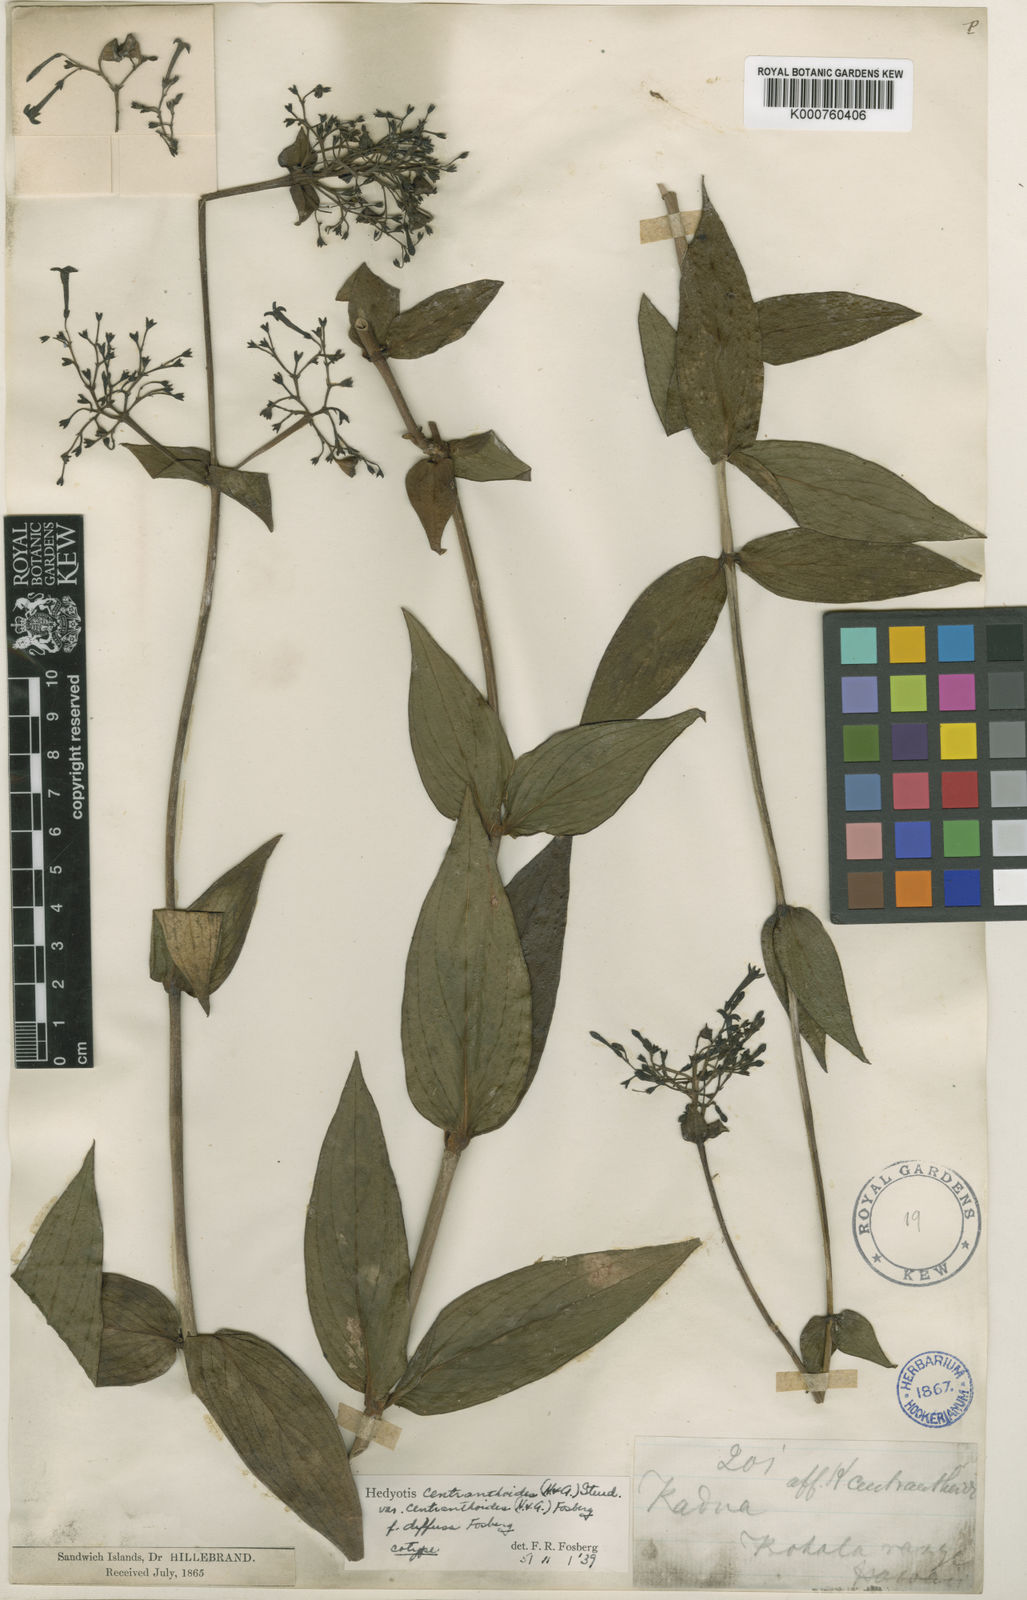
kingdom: Plantae
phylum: Tracheophyta
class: Magnoliopsida
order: Gentianales
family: Rubiaceae
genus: Kadua
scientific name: Kadua centranthoides
